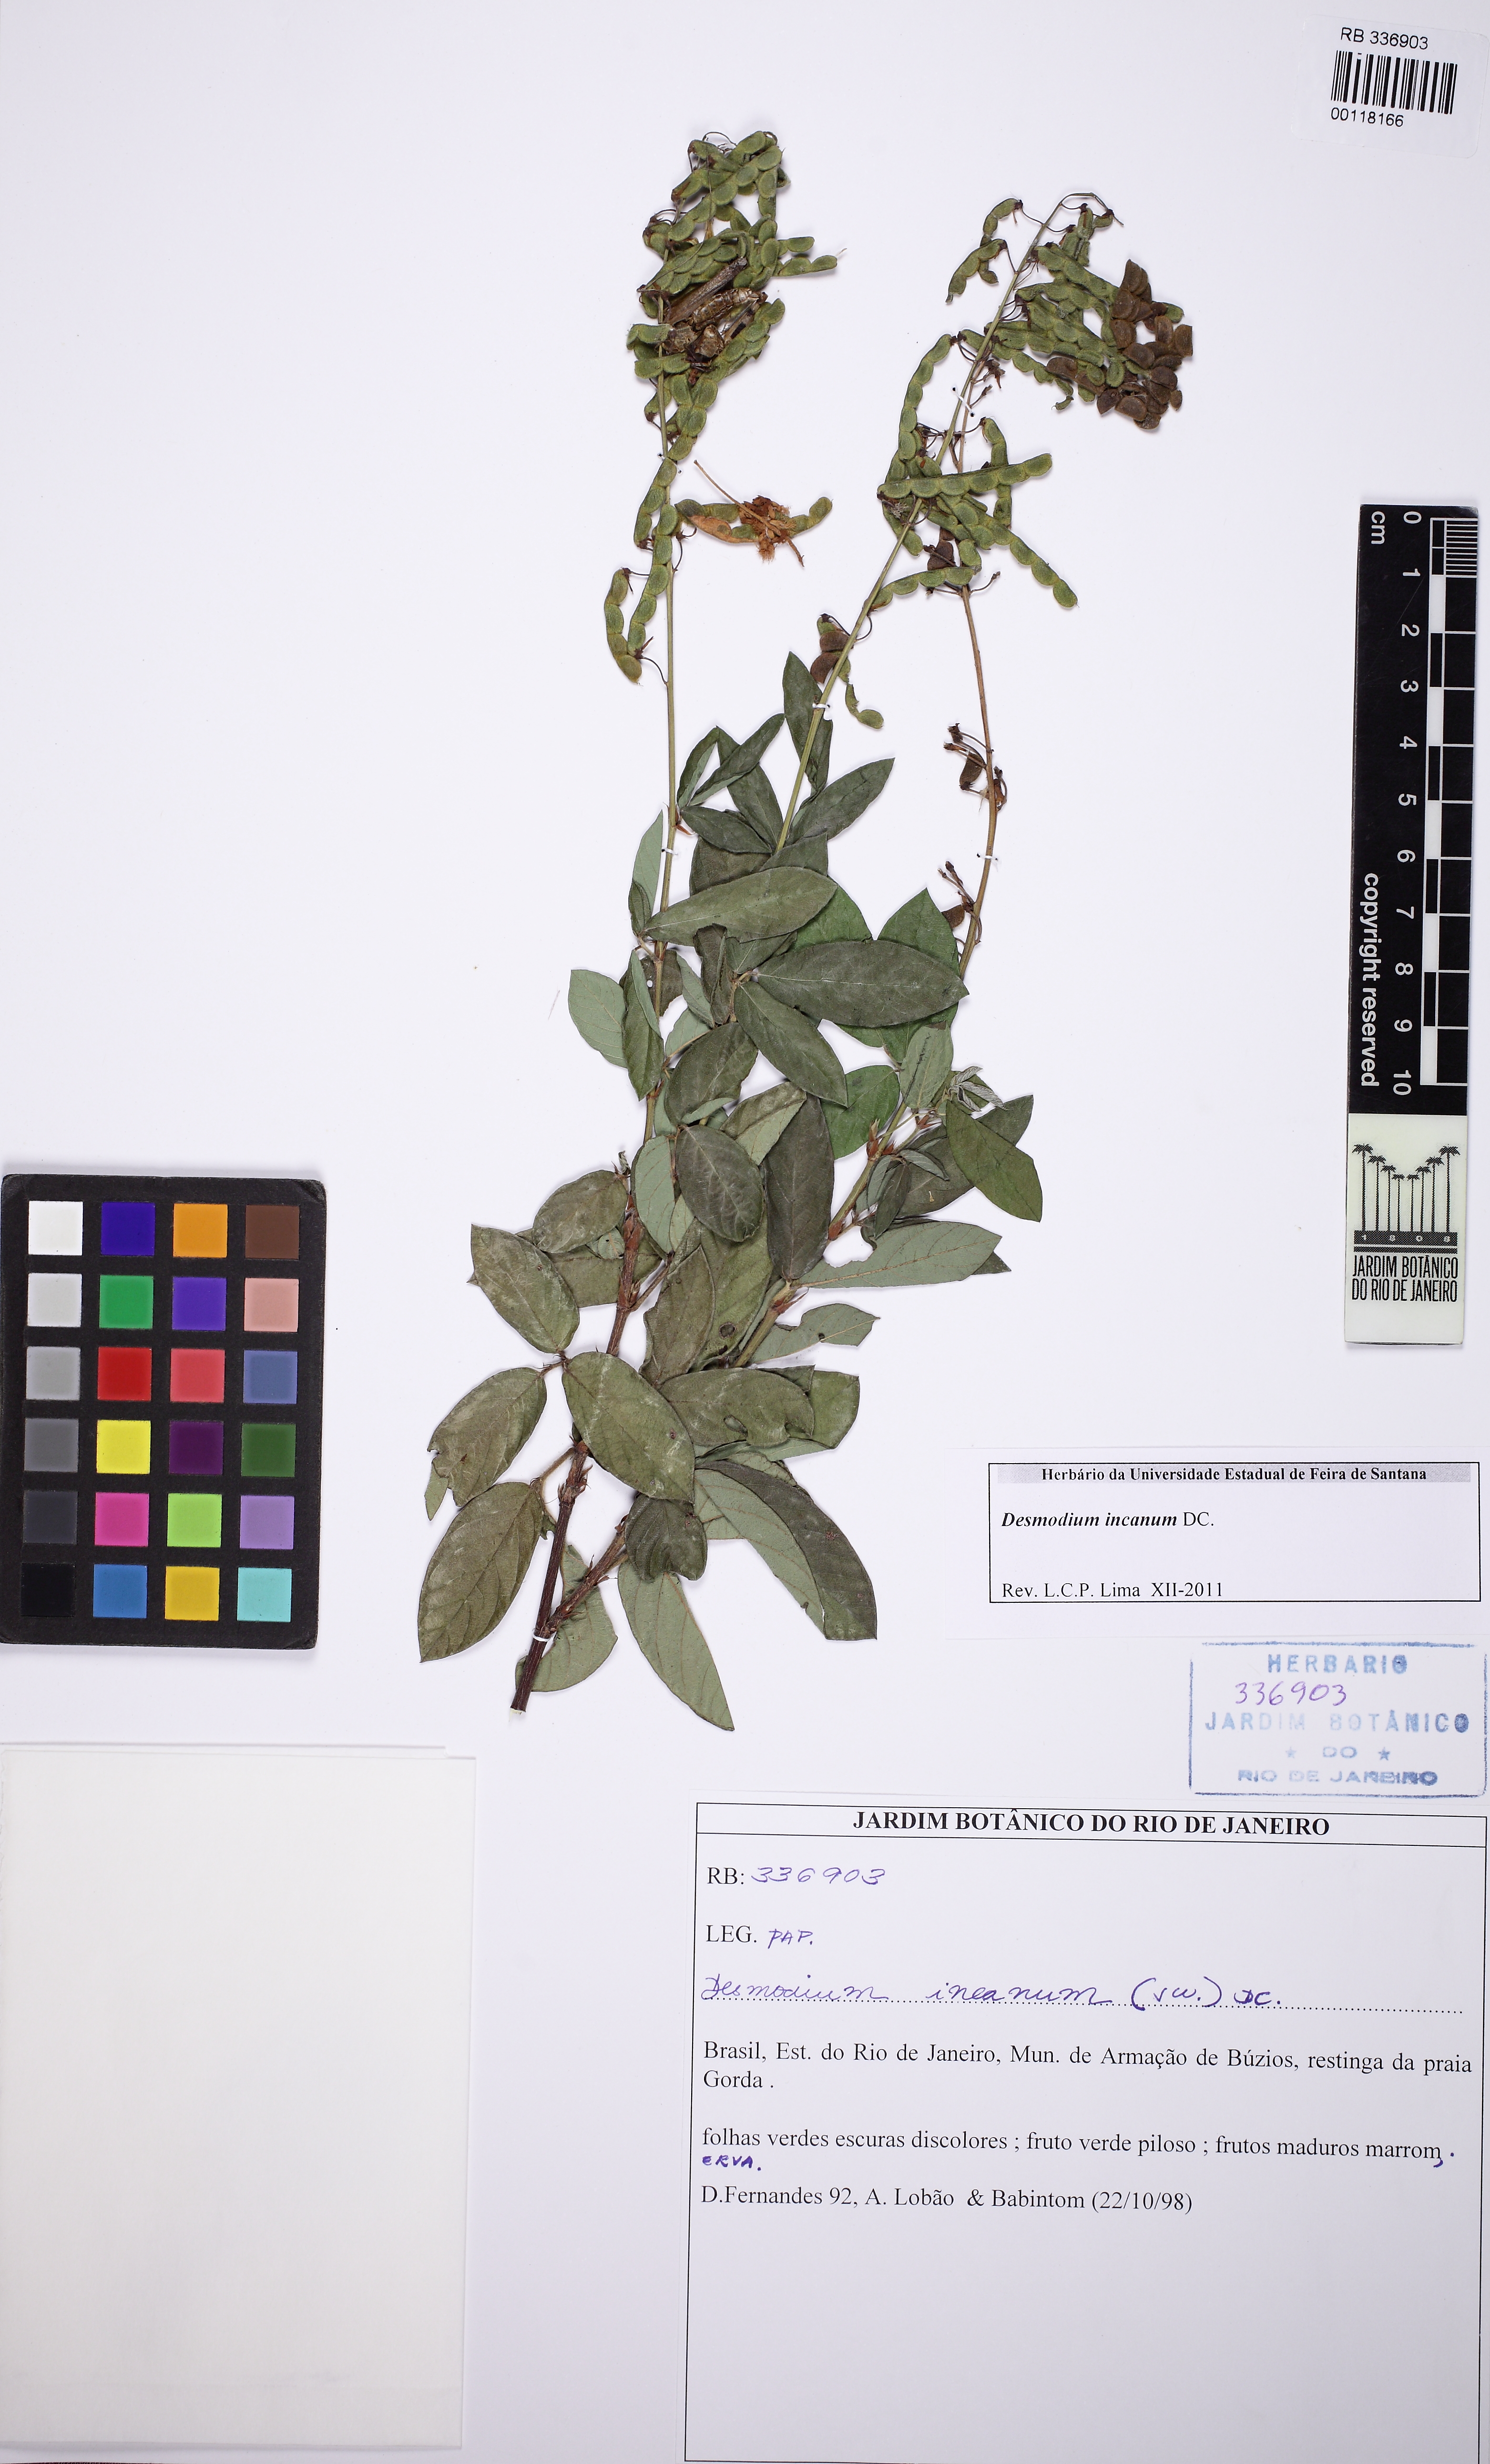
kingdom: Plantae
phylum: Tracheophyta
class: Magnoliopsida
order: Fabales
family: Fabaceae
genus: Desmodium
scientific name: Desmodium incanum
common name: Tickclover
